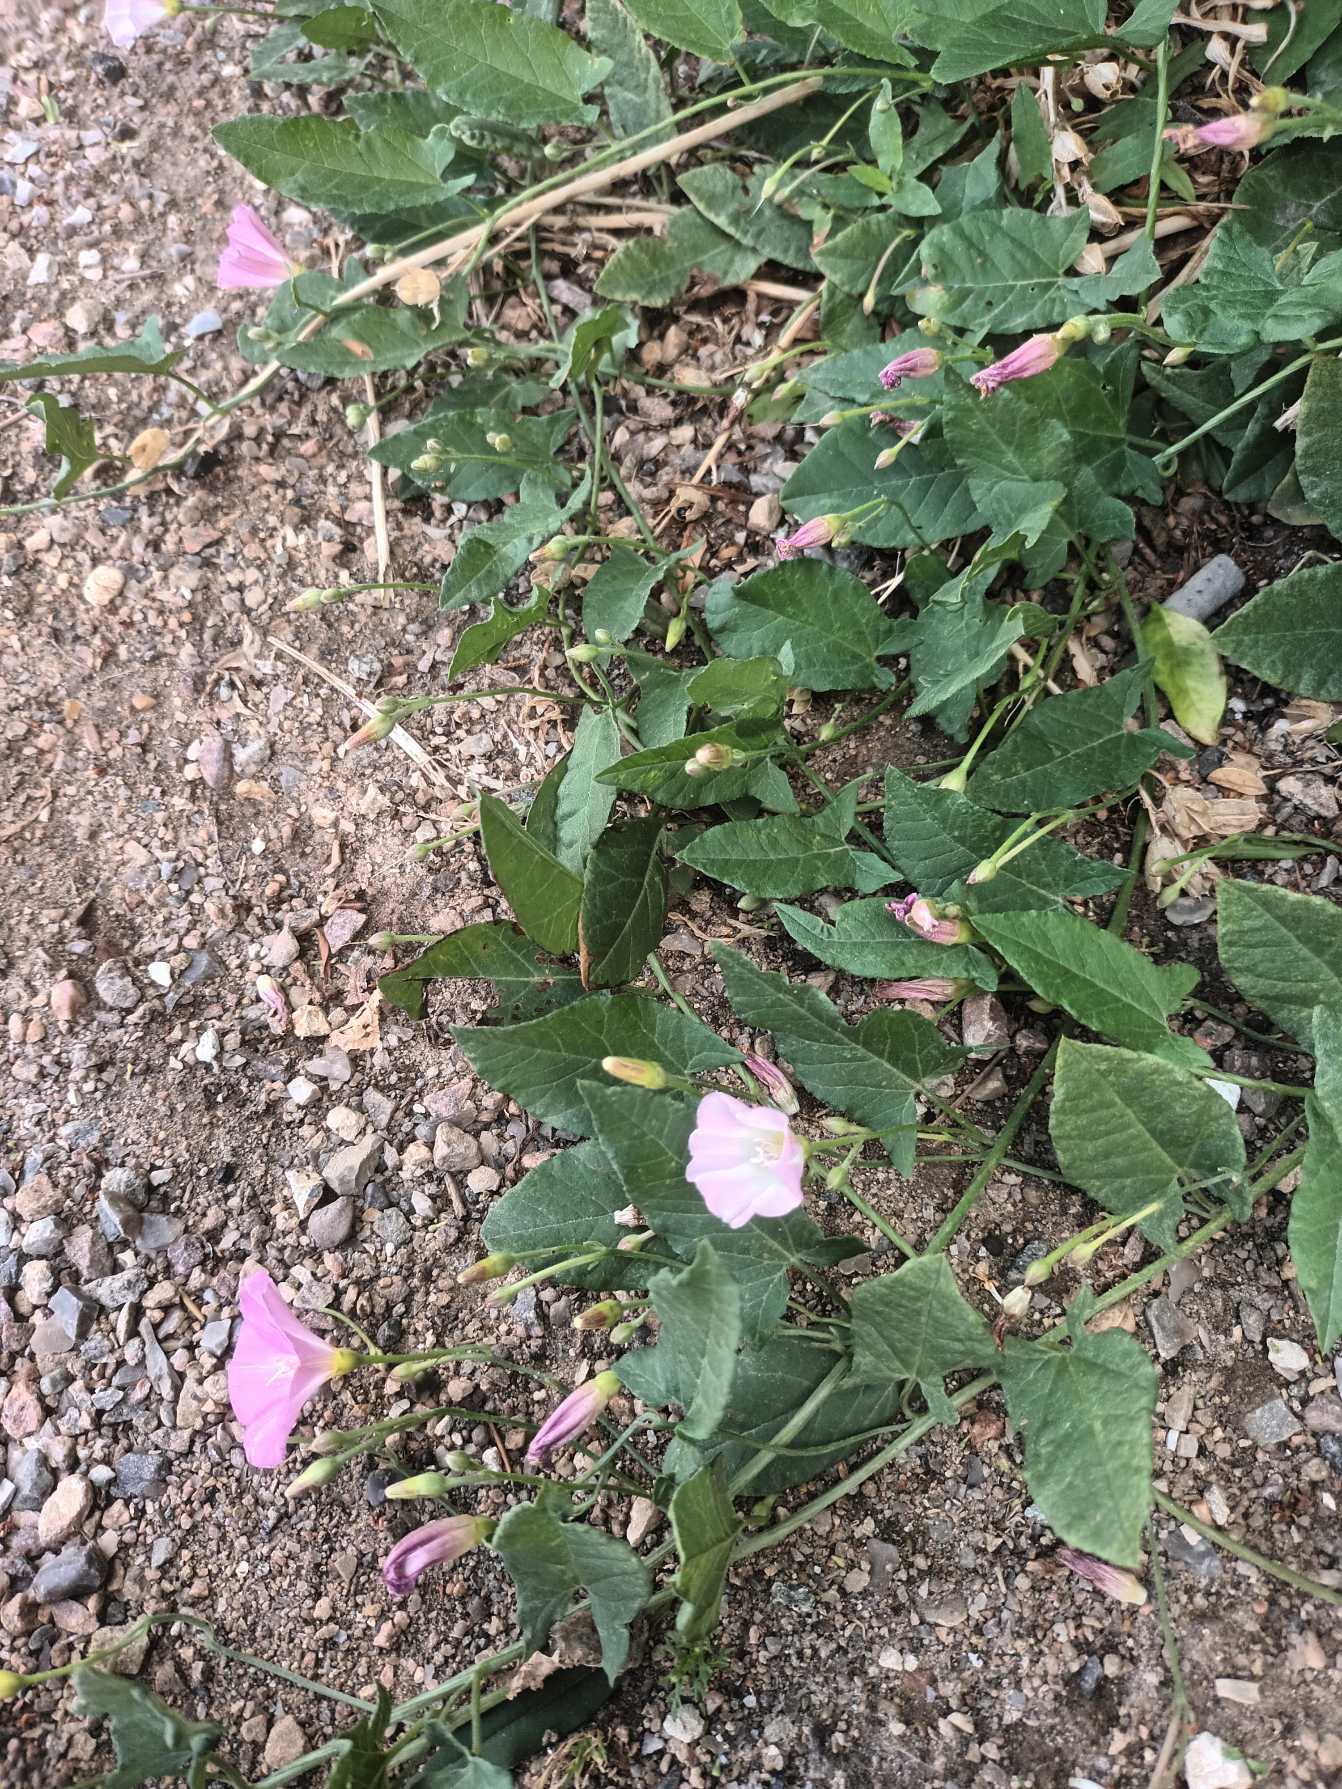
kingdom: Plantae
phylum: Tracheophyta
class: Magnoliopsida
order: Solanales
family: Convolvulaceae
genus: Convolvulus
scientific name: Convolvulus arvensis
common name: Ager-snerle
